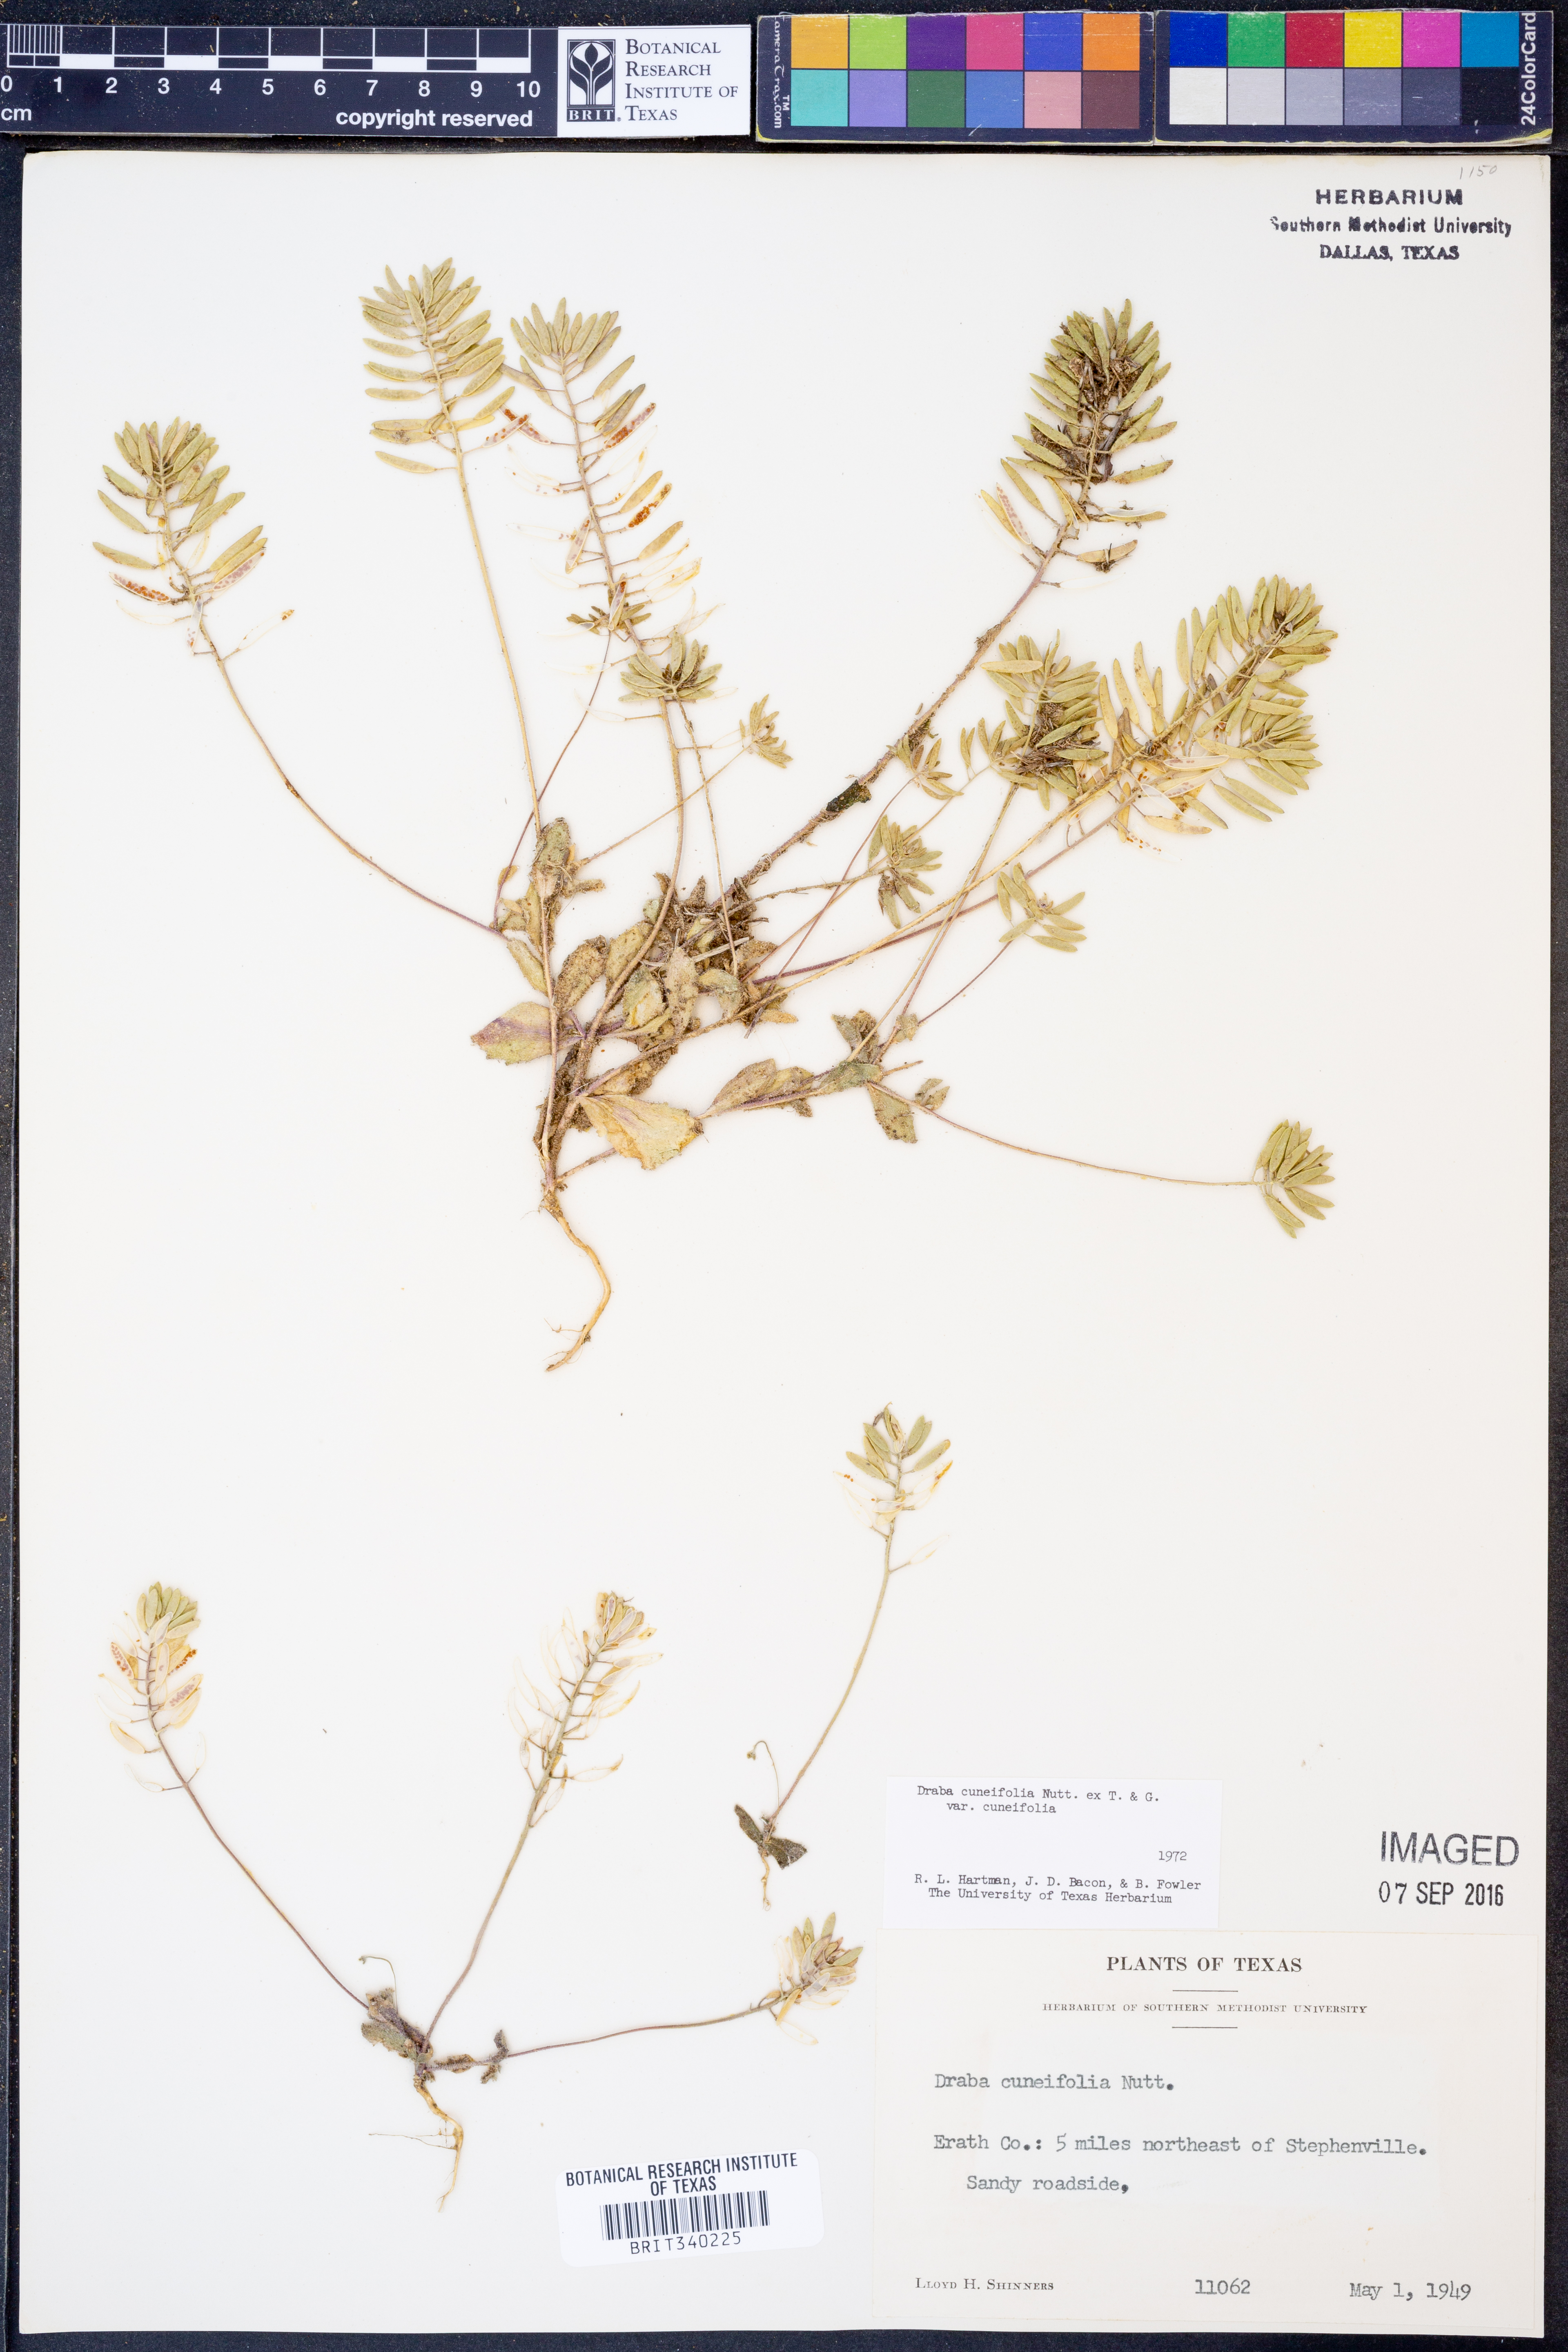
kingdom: Plantae
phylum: Tracheophyta
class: Magnoliopsida
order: Brassicales
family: Brassicaceae
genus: Tomostima
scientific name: Tomostima cuneifolia
